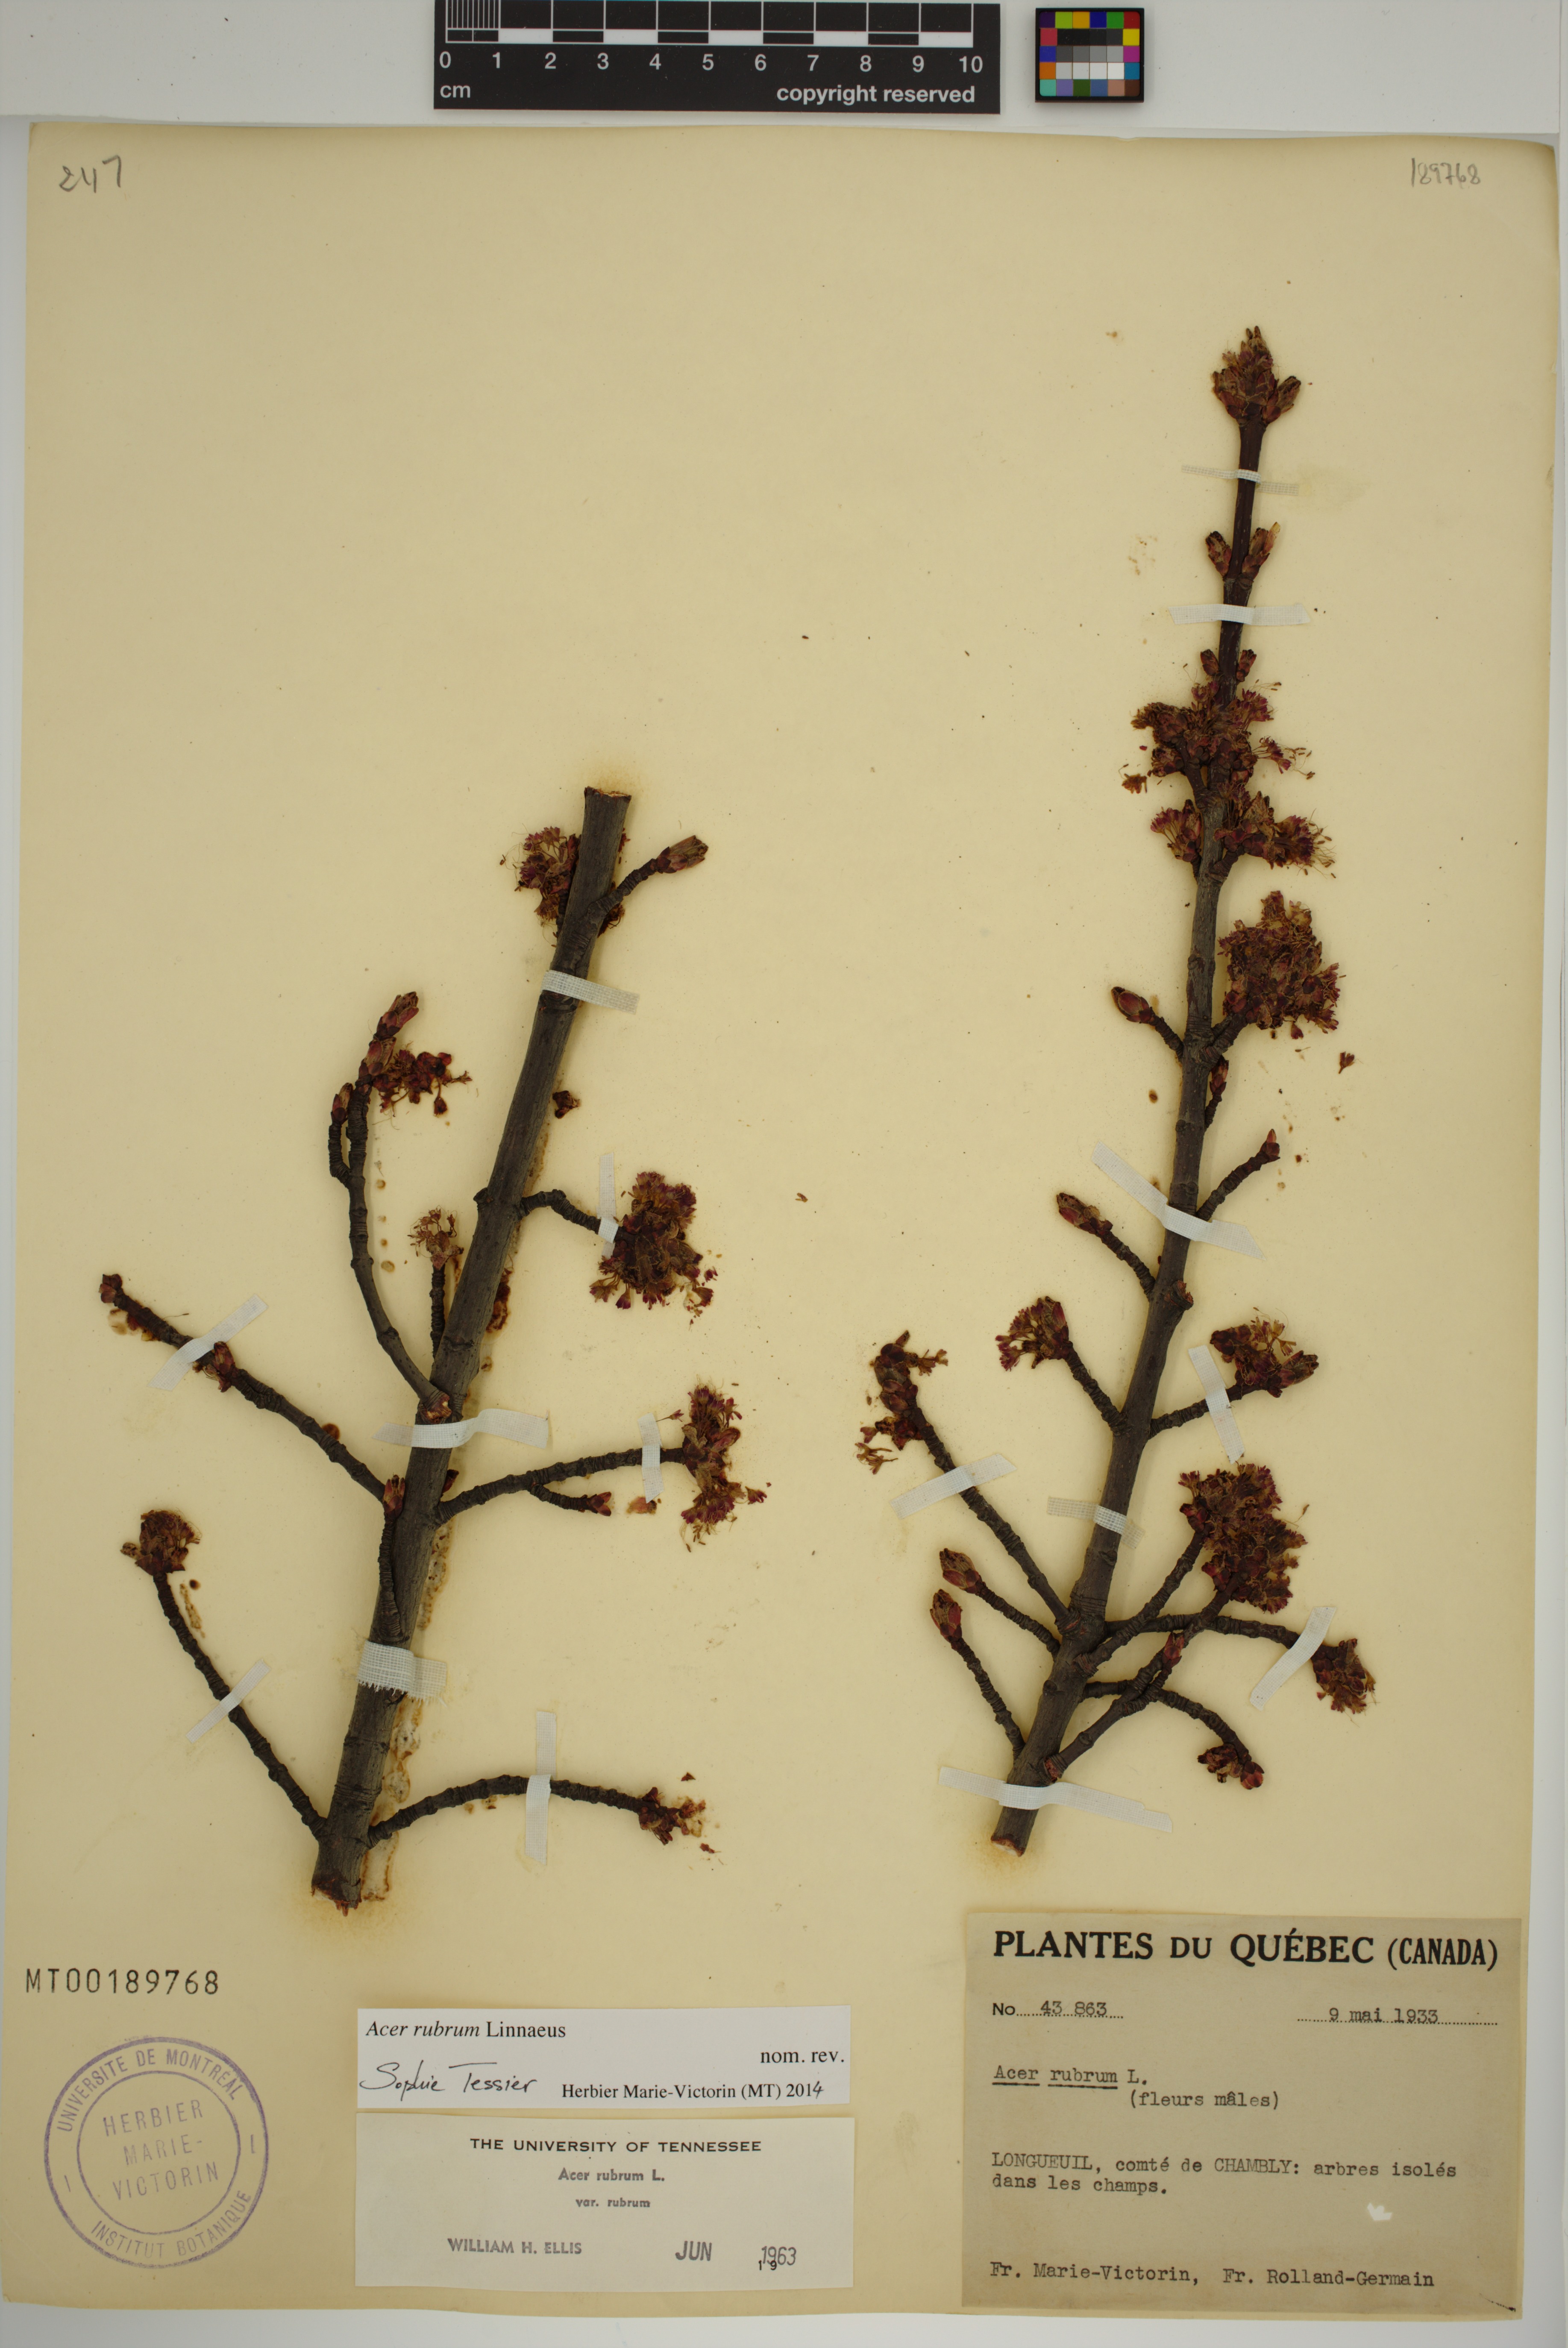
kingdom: Plantae
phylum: Tracheophyta
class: Magnoliopsida
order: Sapindales
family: Sapindaceae
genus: Acer
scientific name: Acer rubrum
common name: Red maple
